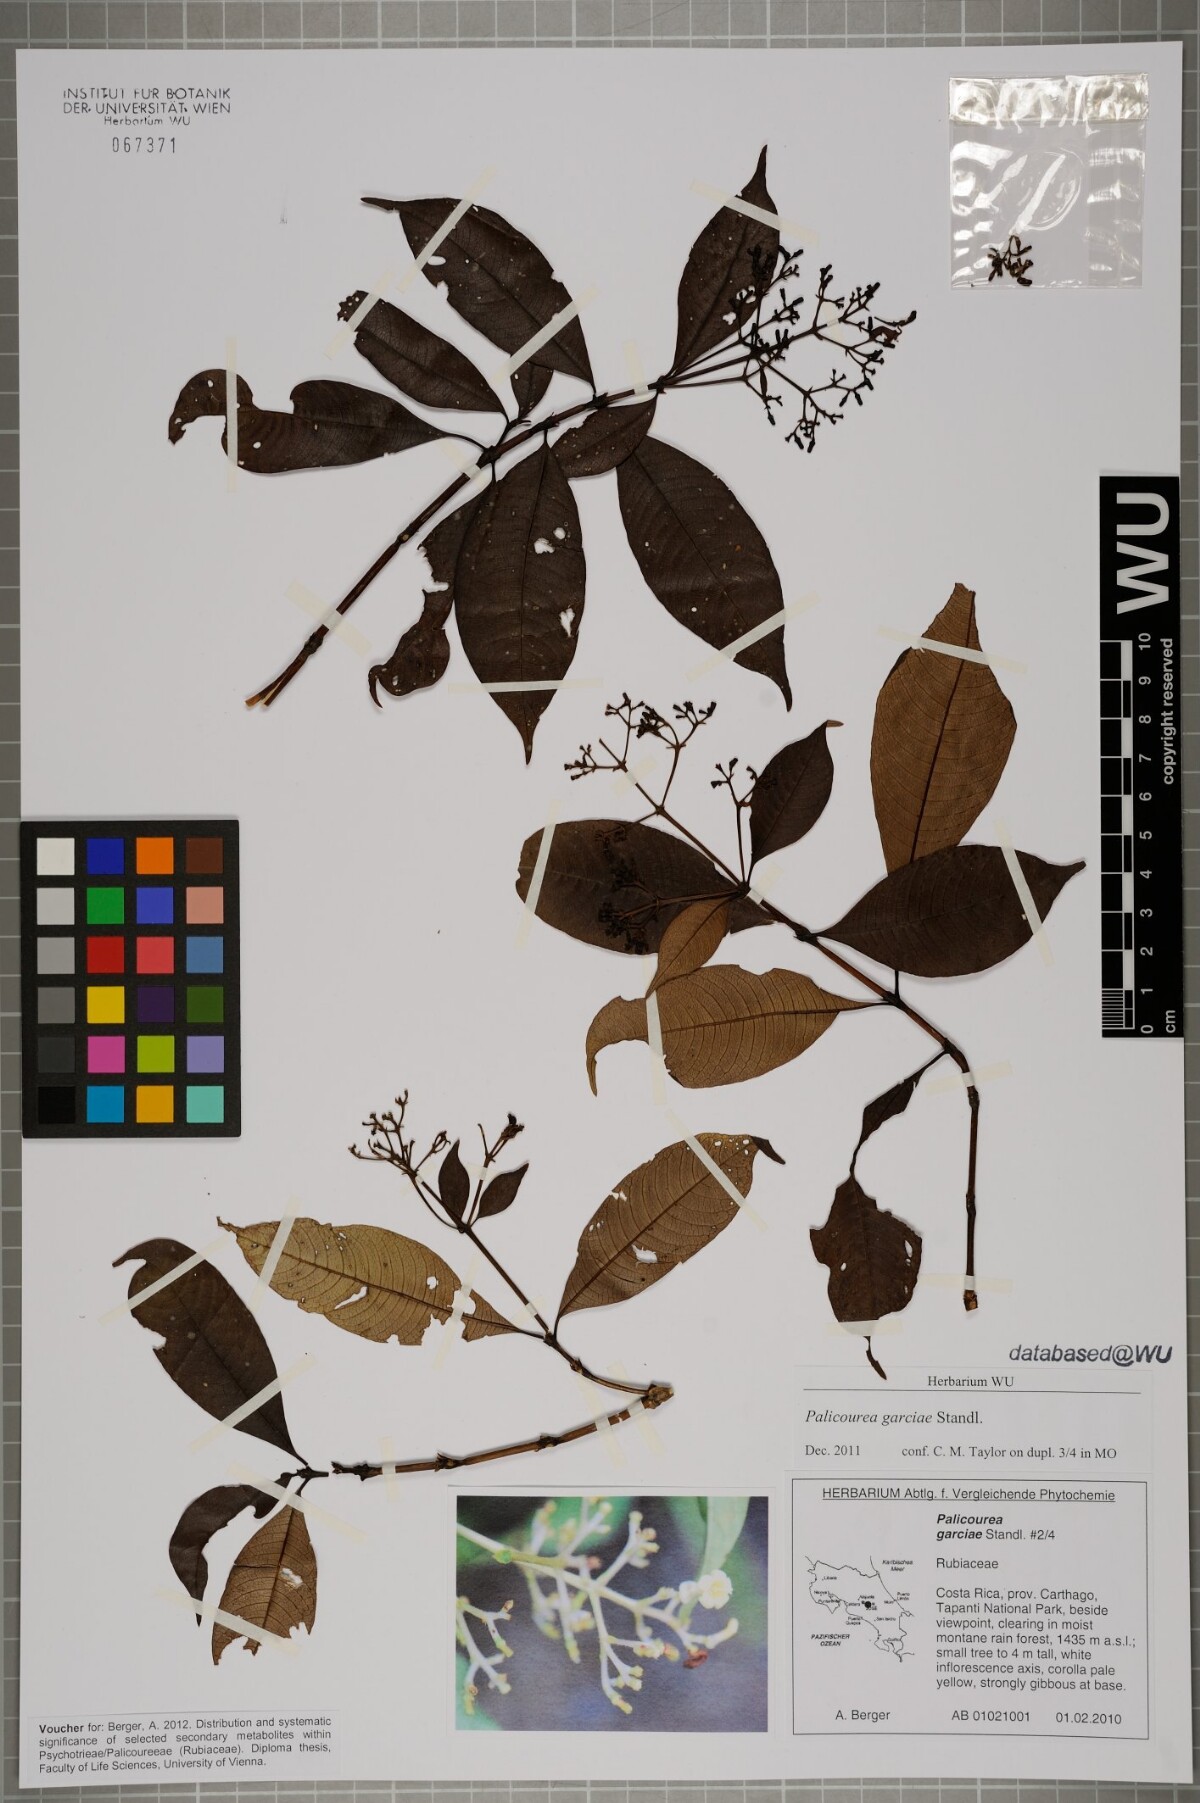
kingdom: Plantae
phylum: Tracheophyta
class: Magnoliopsida
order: Gentianales
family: Rubiaceae
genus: Palicourea
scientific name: Palicourea garciae
